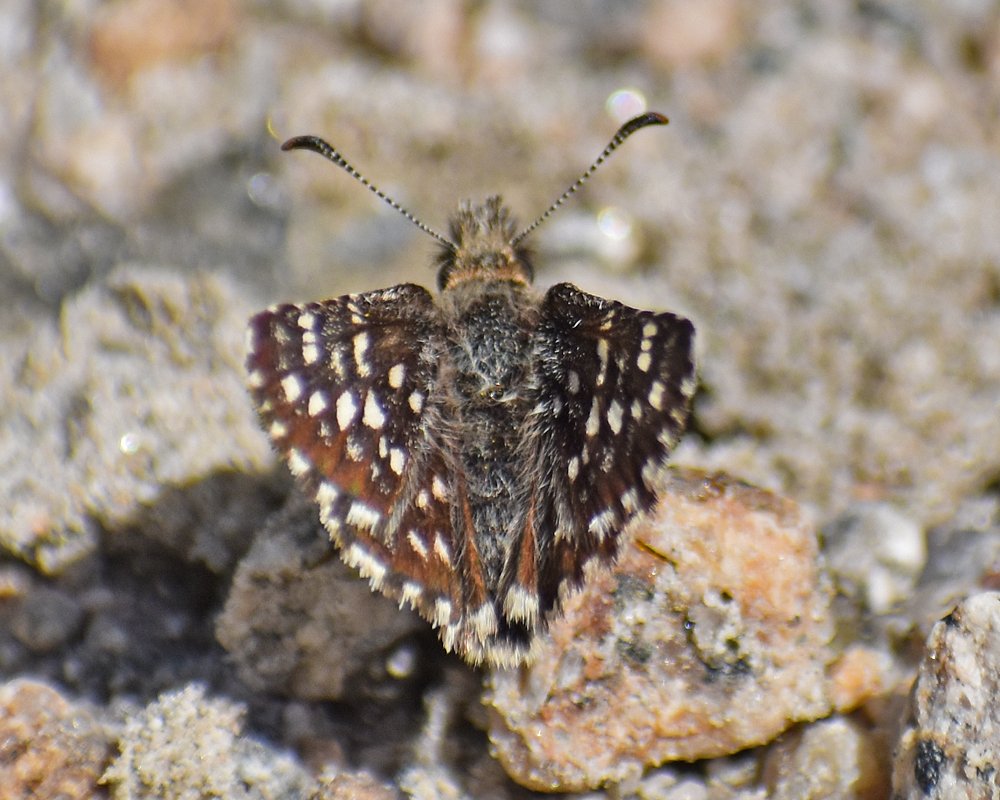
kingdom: Animalia
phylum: Arthropoda
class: Insecta
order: Lepidoptera
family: Hesperiidae
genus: Pyrgus
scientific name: Pyrgus ruralis
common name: Two-banded Checkered-Skipper
